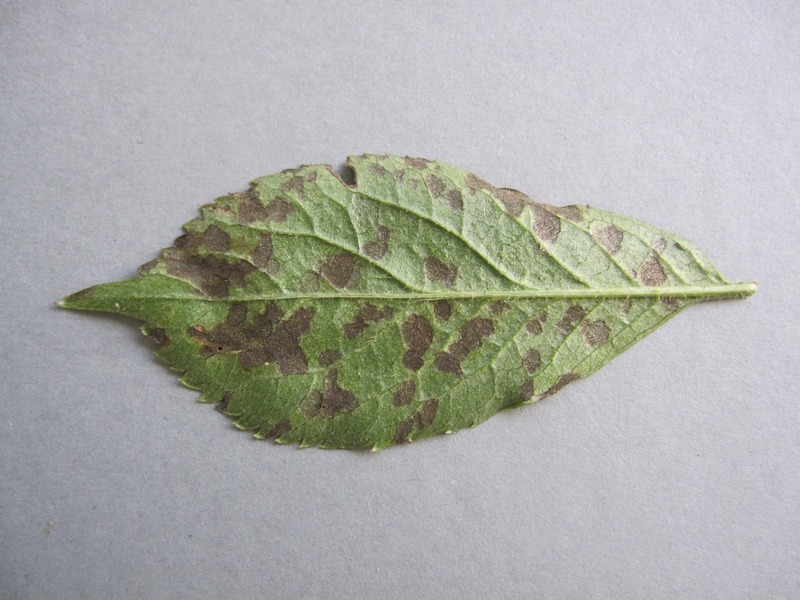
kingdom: Fungi
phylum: Ascomycota
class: Dothideomycetes
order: Mycosphaerellales
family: Mycosphaerellaceae
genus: Pseudocercospora
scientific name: Pseudocercospora depazeoides
